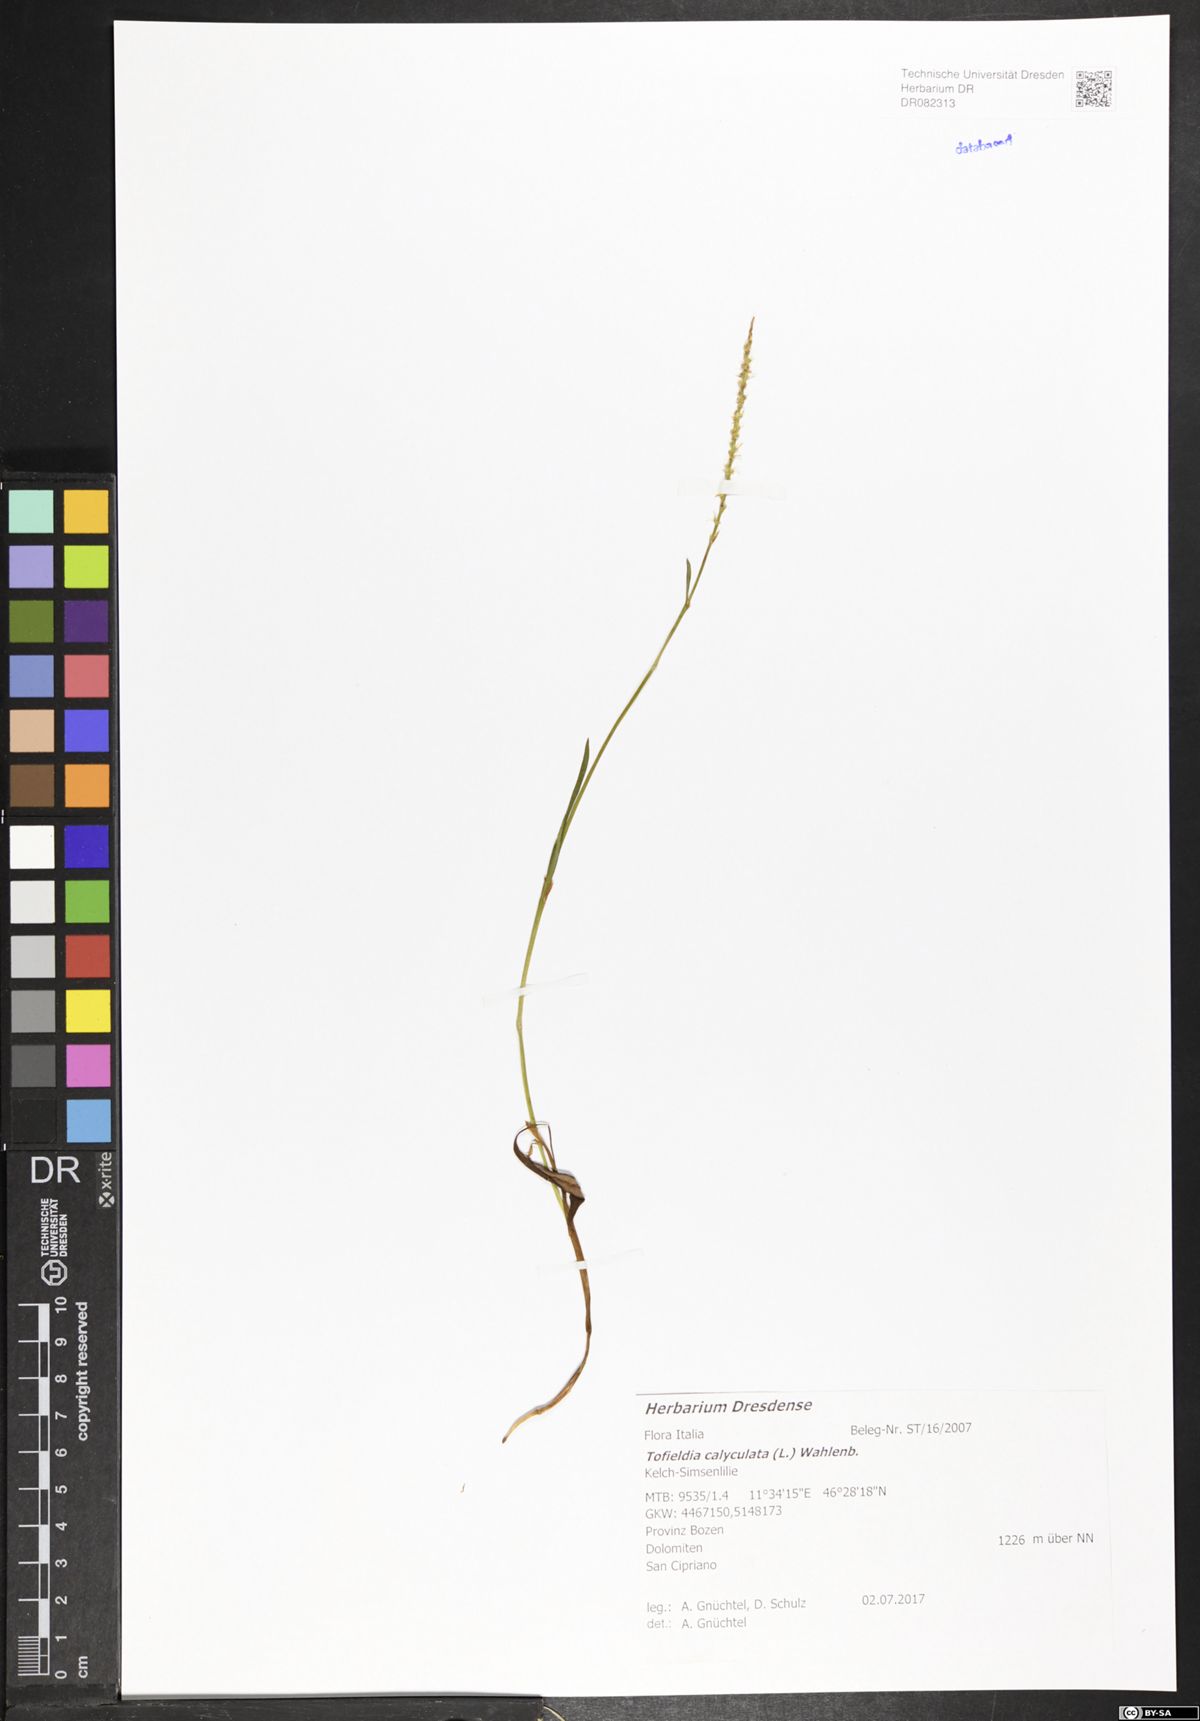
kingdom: Plantae
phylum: Tracheophyta
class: Liliopsida
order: Alismatales
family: Tofieldiaceae
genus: Tofieldia
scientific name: Tofieldia calyculata
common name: German-asphodel
